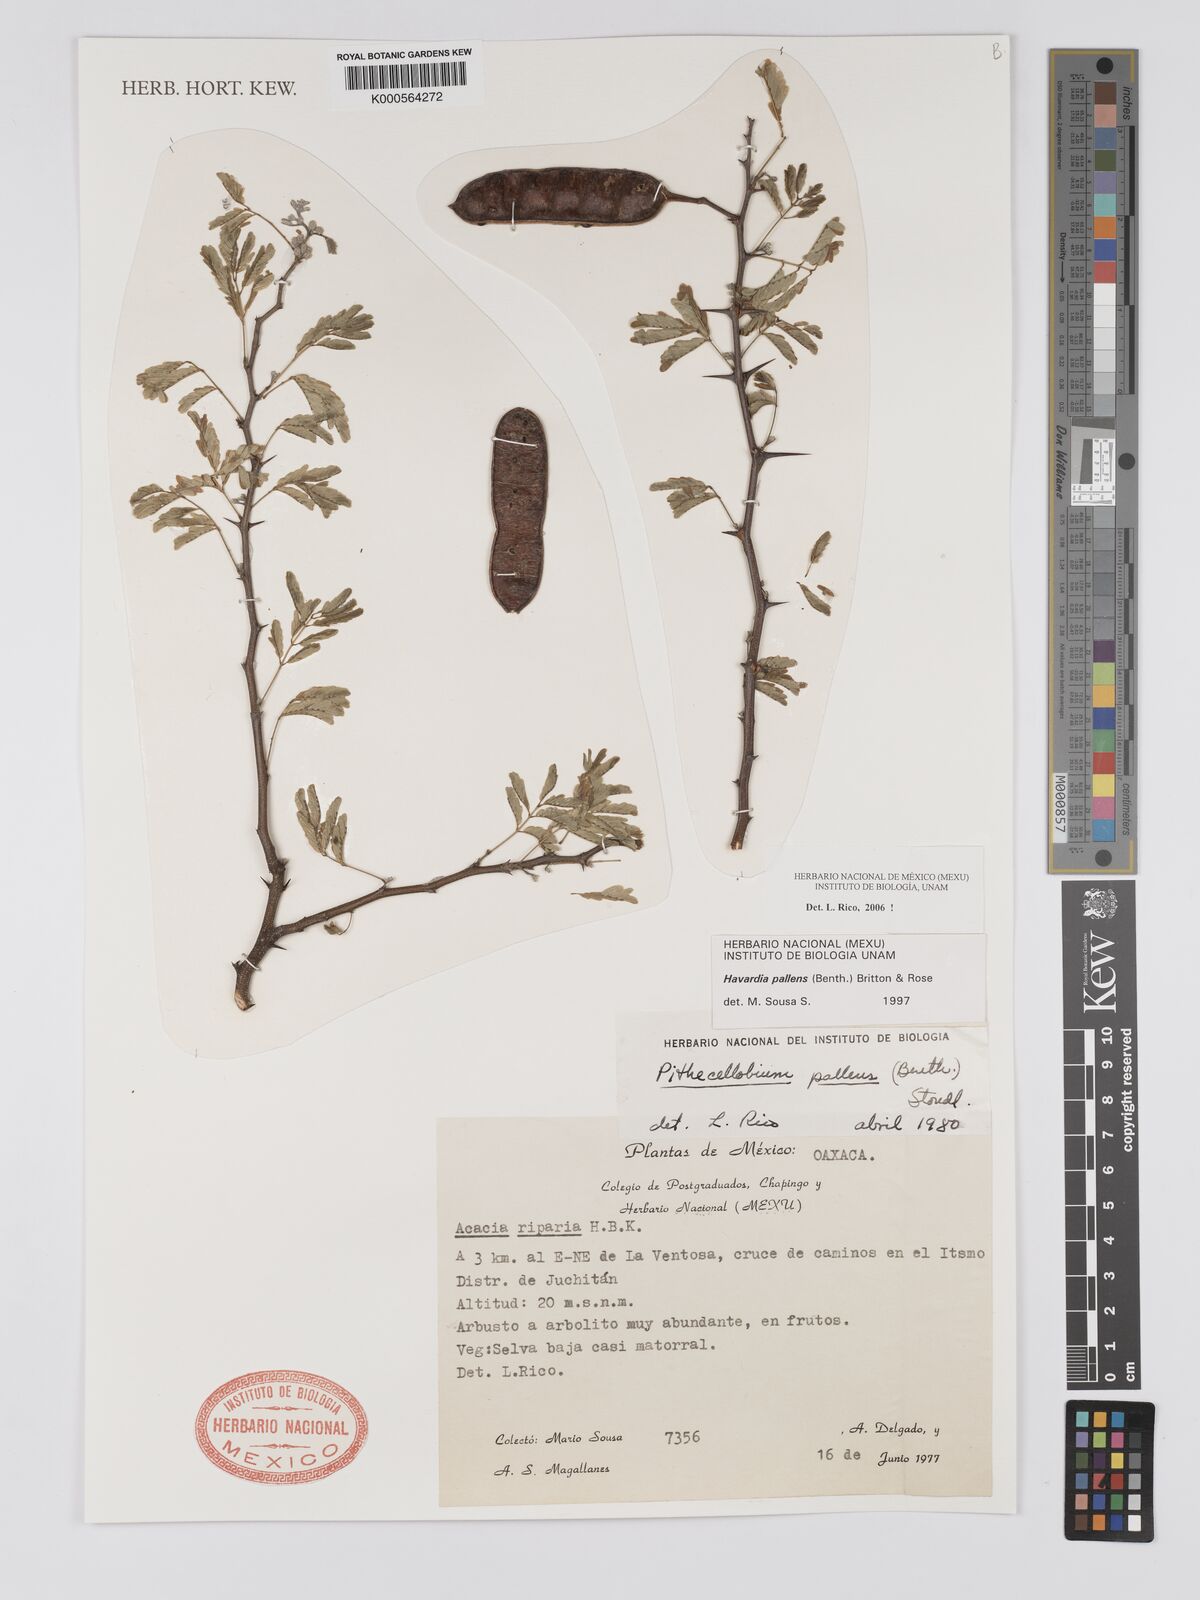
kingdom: Plantae
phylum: Tracheophyta
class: Magnoliopsida
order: Fabales
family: Fabaceae
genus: Havardia
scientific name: Havardia pallens
